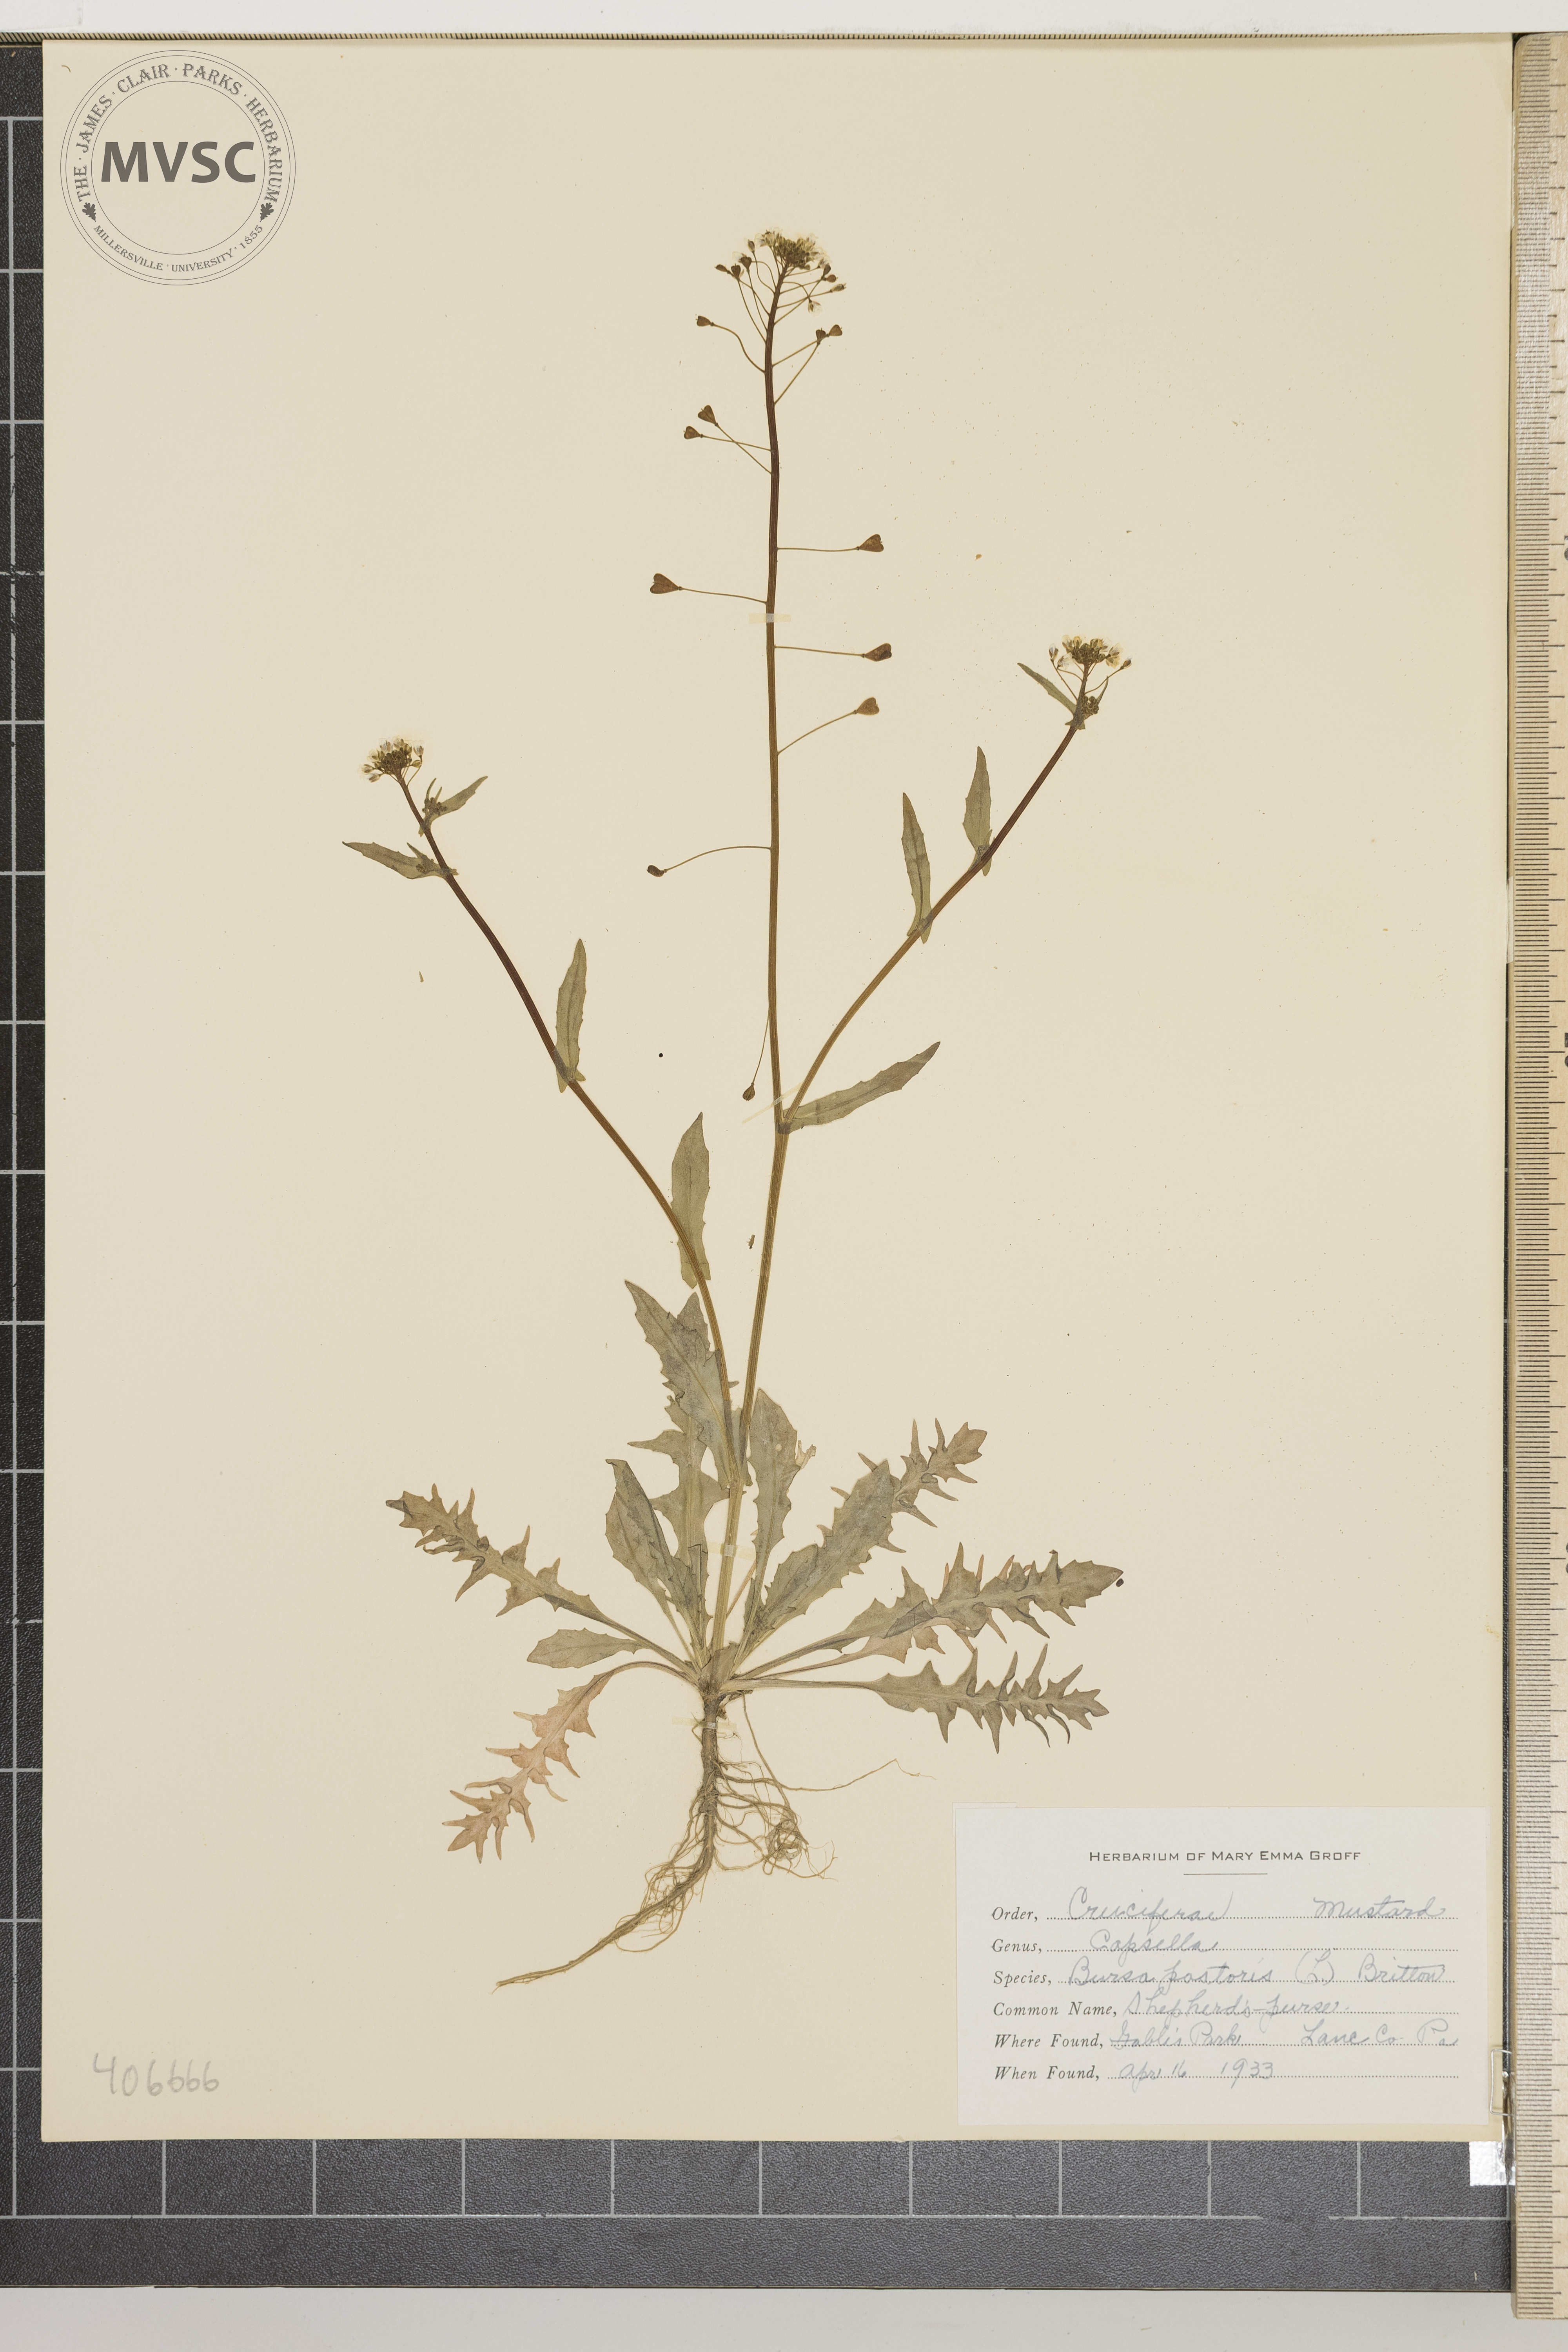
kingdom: Plantae
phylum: Tracheophyta
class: Magnoliopsida
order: Brassicales
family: Brassicaceae
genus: Capsella
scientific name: Capsella bursa-pastoris
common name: Shepherd's Purse
